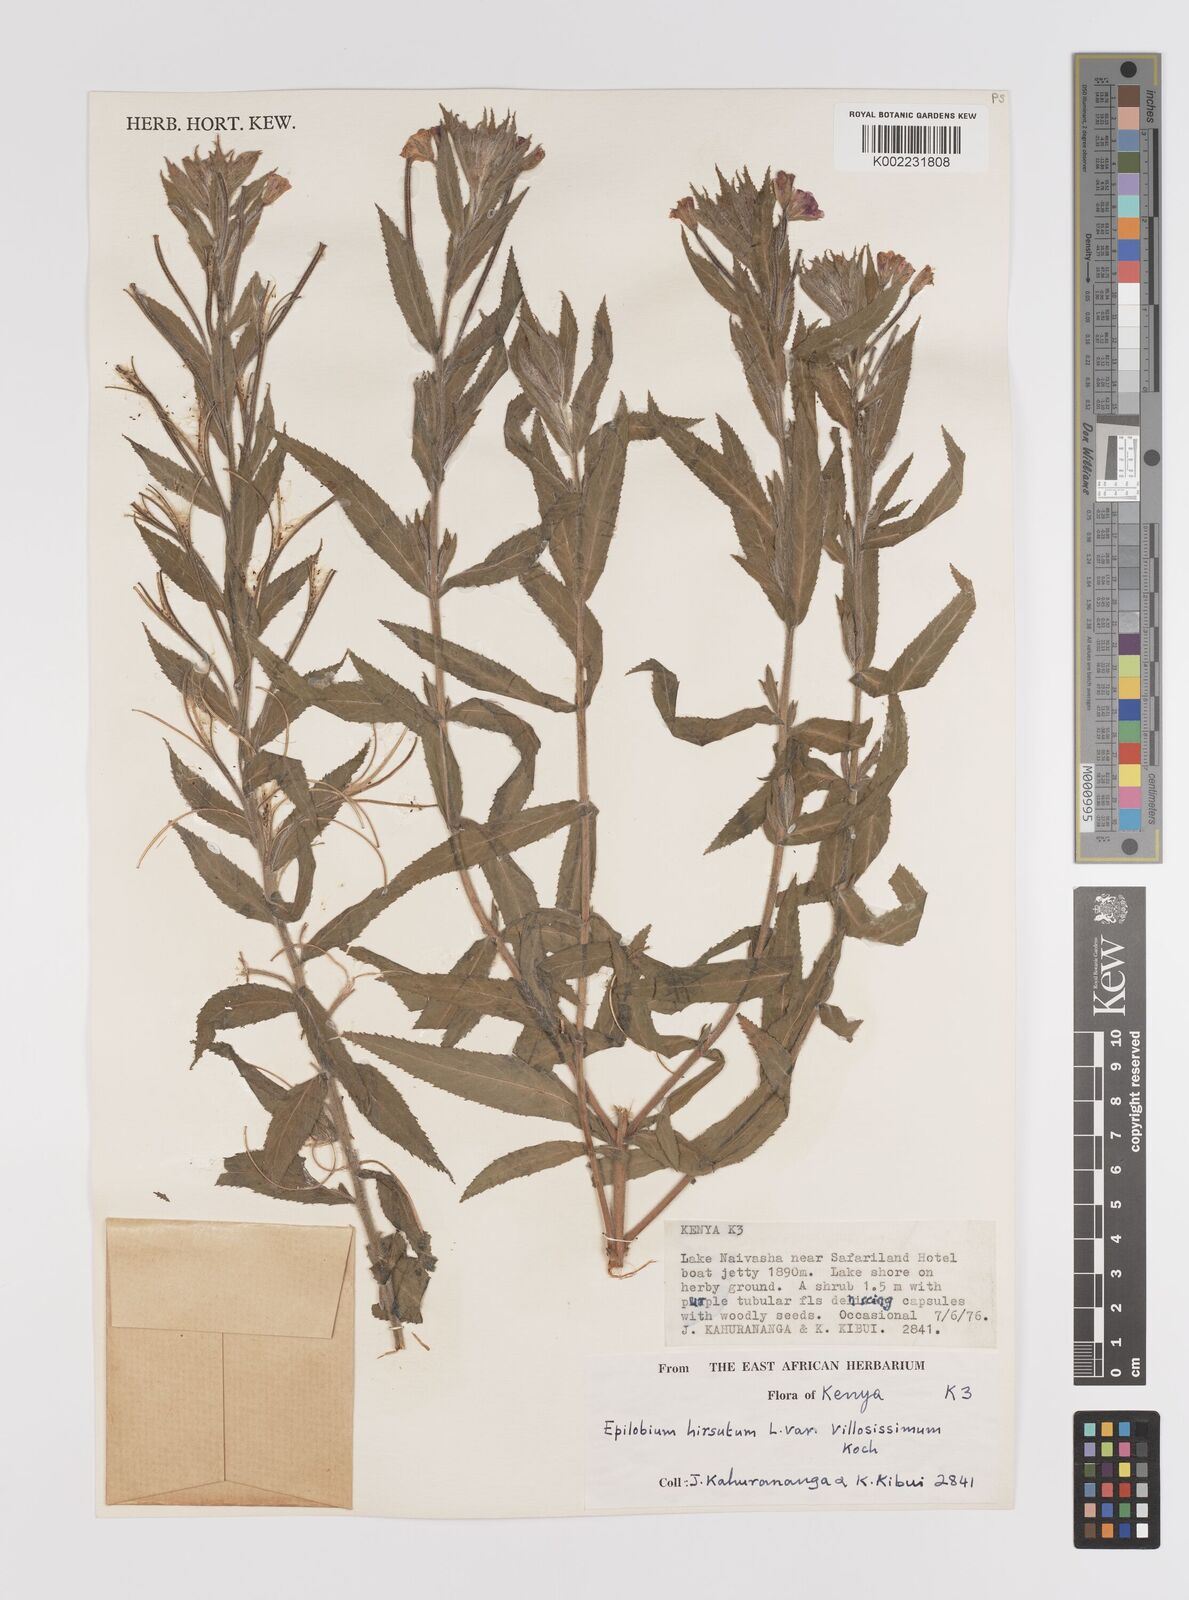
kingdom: Plantae
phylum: Tracheophyta
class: Magnoliopsida
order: Myrtales
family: Onagraceae
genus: Epilobium
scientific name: Epilobium hirsutum
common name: Great willowherb
